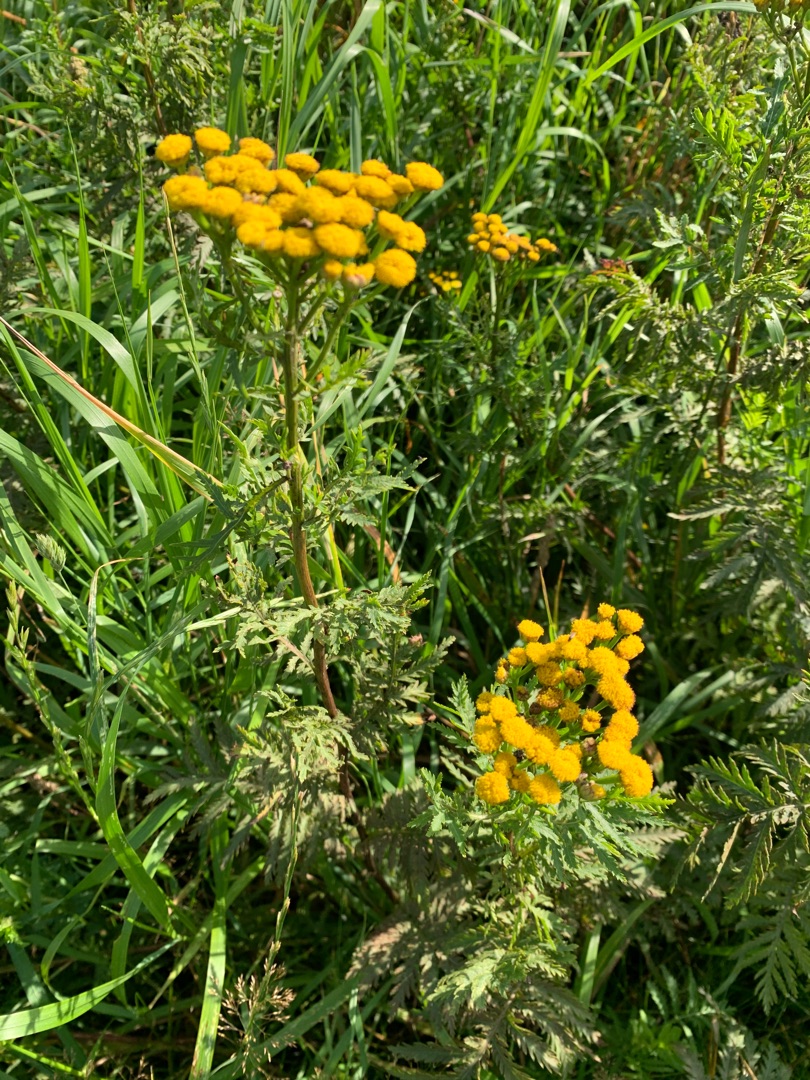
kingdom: Plantae
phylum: Tracheophyta
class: Magnoliopsida
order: Asterales
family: Asteraceae
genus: Tanacetum
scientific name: Tanacetum vulgare
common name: Rejnfan
